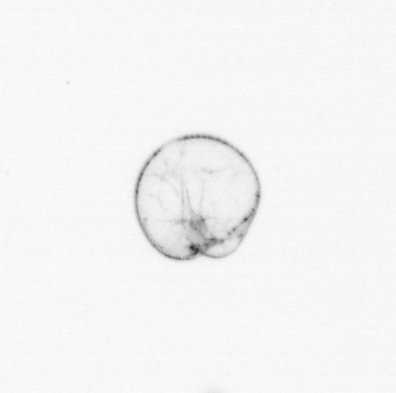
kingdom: Chromista
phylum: Myzozoa
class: Dinophyceae
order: Noctilucales
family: Noctilucaceae
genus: Noctiluca
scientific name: Noctiluca scintillans
